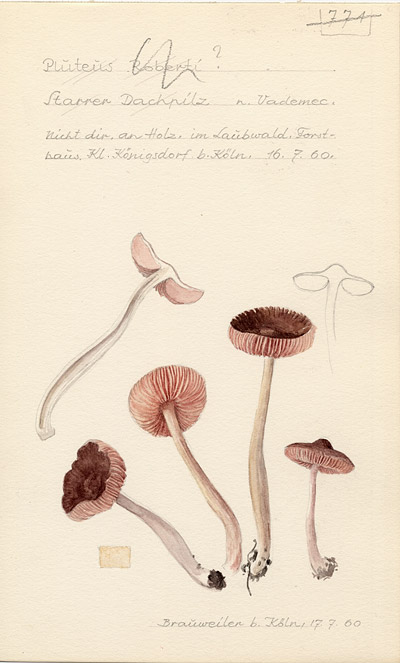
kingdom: Fungi
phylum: Basidiomycota
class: Agaricomycetes
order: Agaricales
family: Pluteaceae
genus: Pluteus
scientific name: Pluteus robertii
